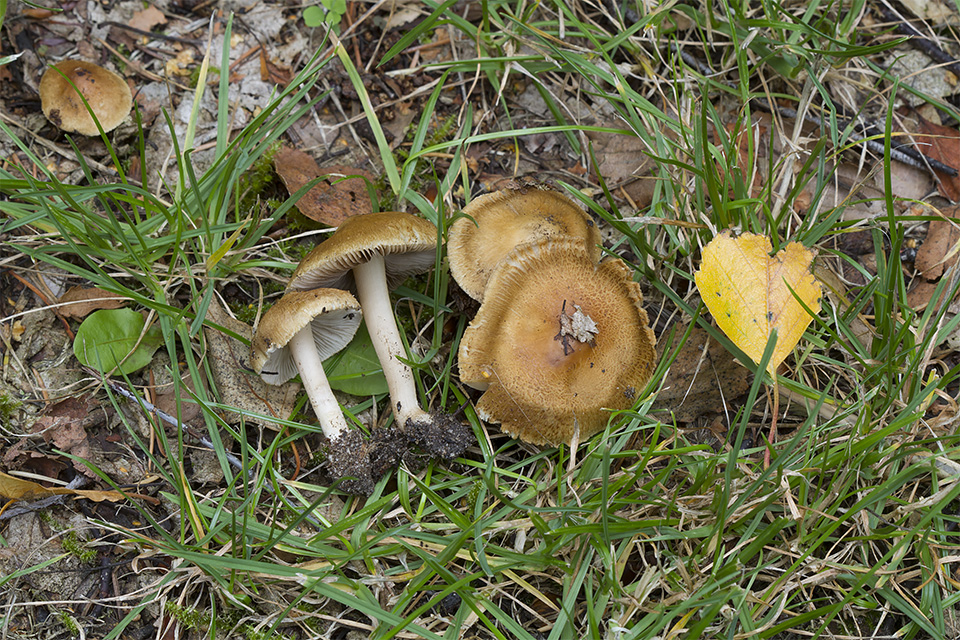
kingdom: Fungi
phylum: Basidiomycota
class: Agaricomycetes
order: Agaricales
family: Inocybaceae
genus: Inocybe
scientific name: Inocybe mixtilis
